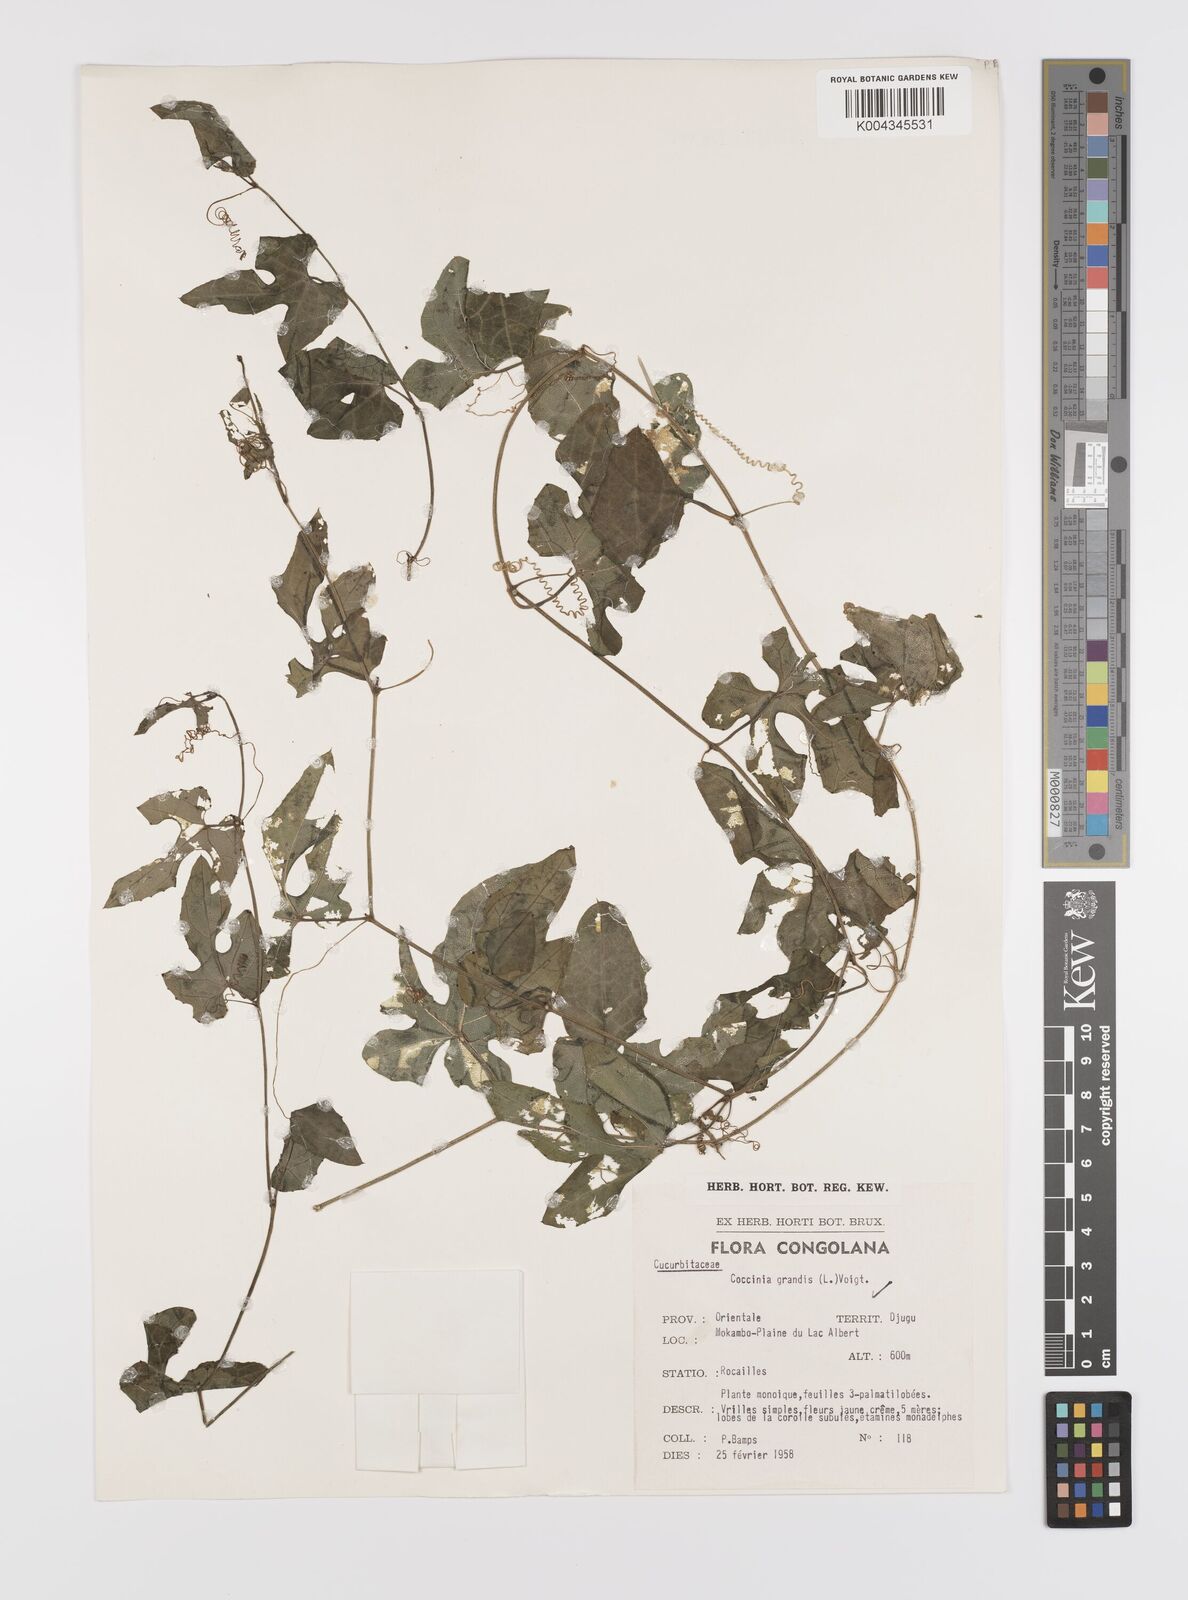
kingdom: Plantae
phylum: Tracheophyta
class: Magnoliopsida
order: Cucurbitales
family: Cucurbitaceae
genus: Coccinia
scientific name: Coccinia grandis
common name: Ivy gourd
